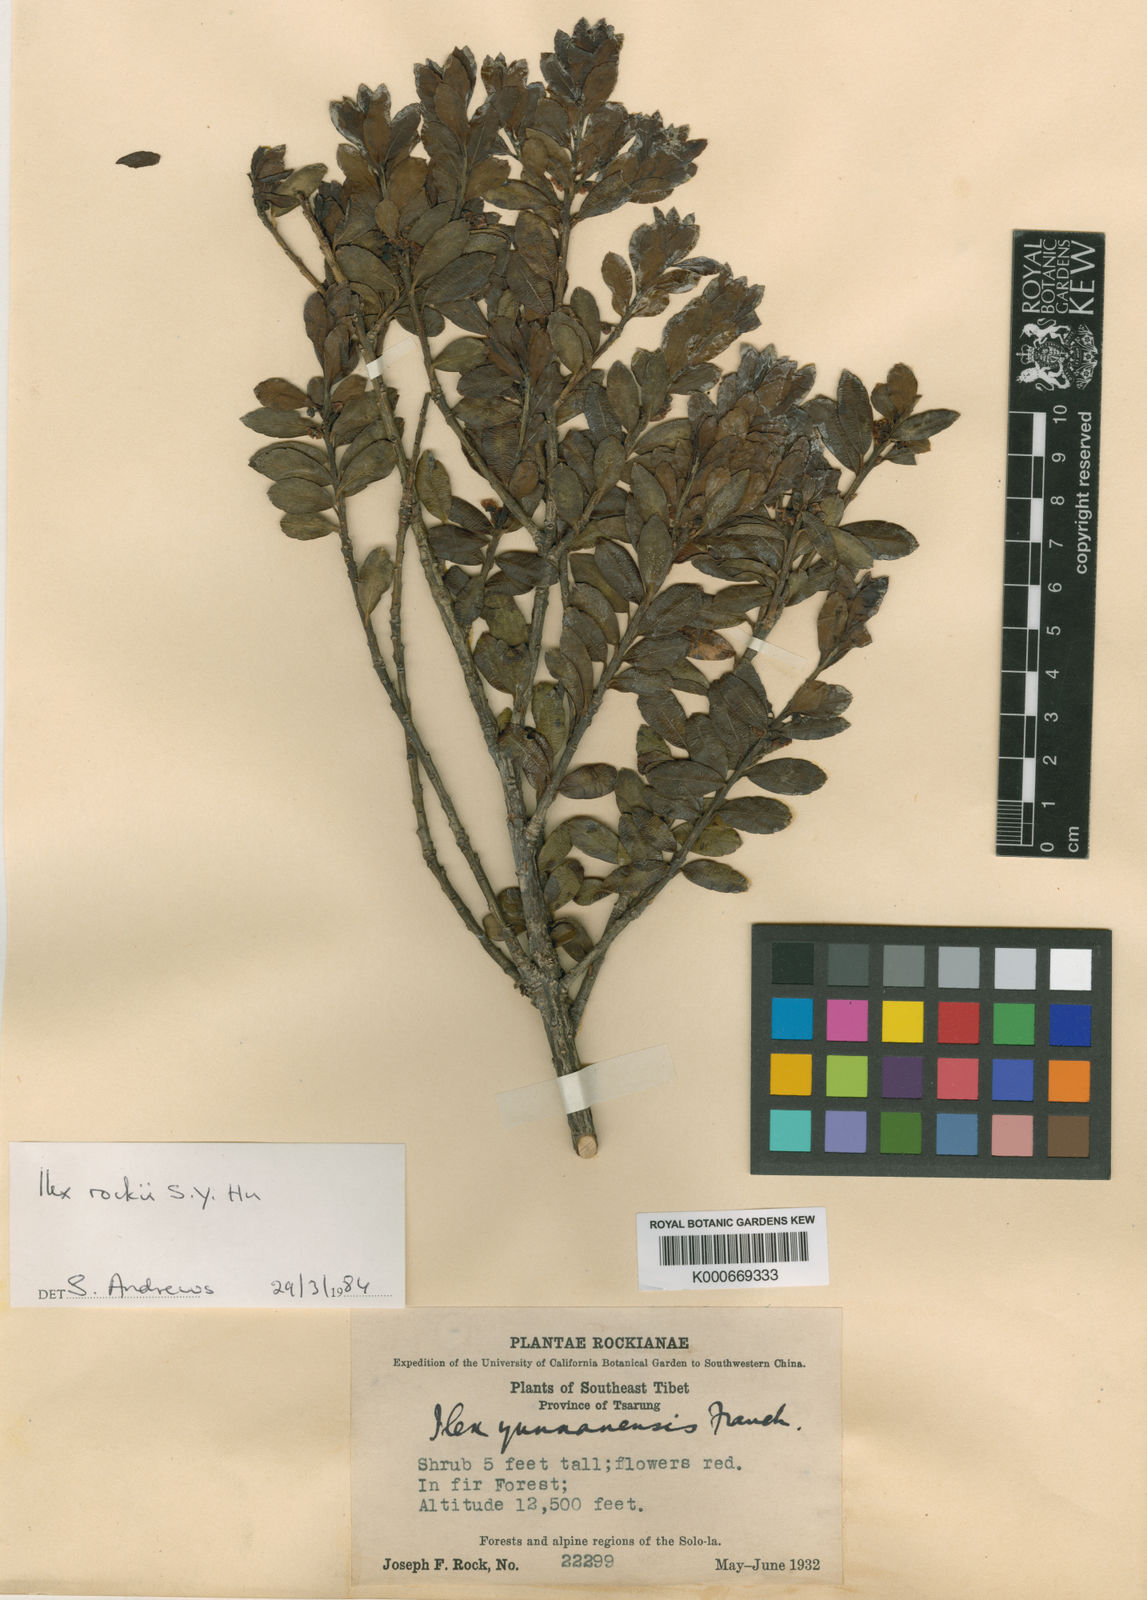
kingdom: Plantae
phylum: Tracheophyta
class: Magnoliopsida
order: Aquifoliales
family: Aquifoliaceae
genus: Ilex
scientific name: Ilex yunnanensis
